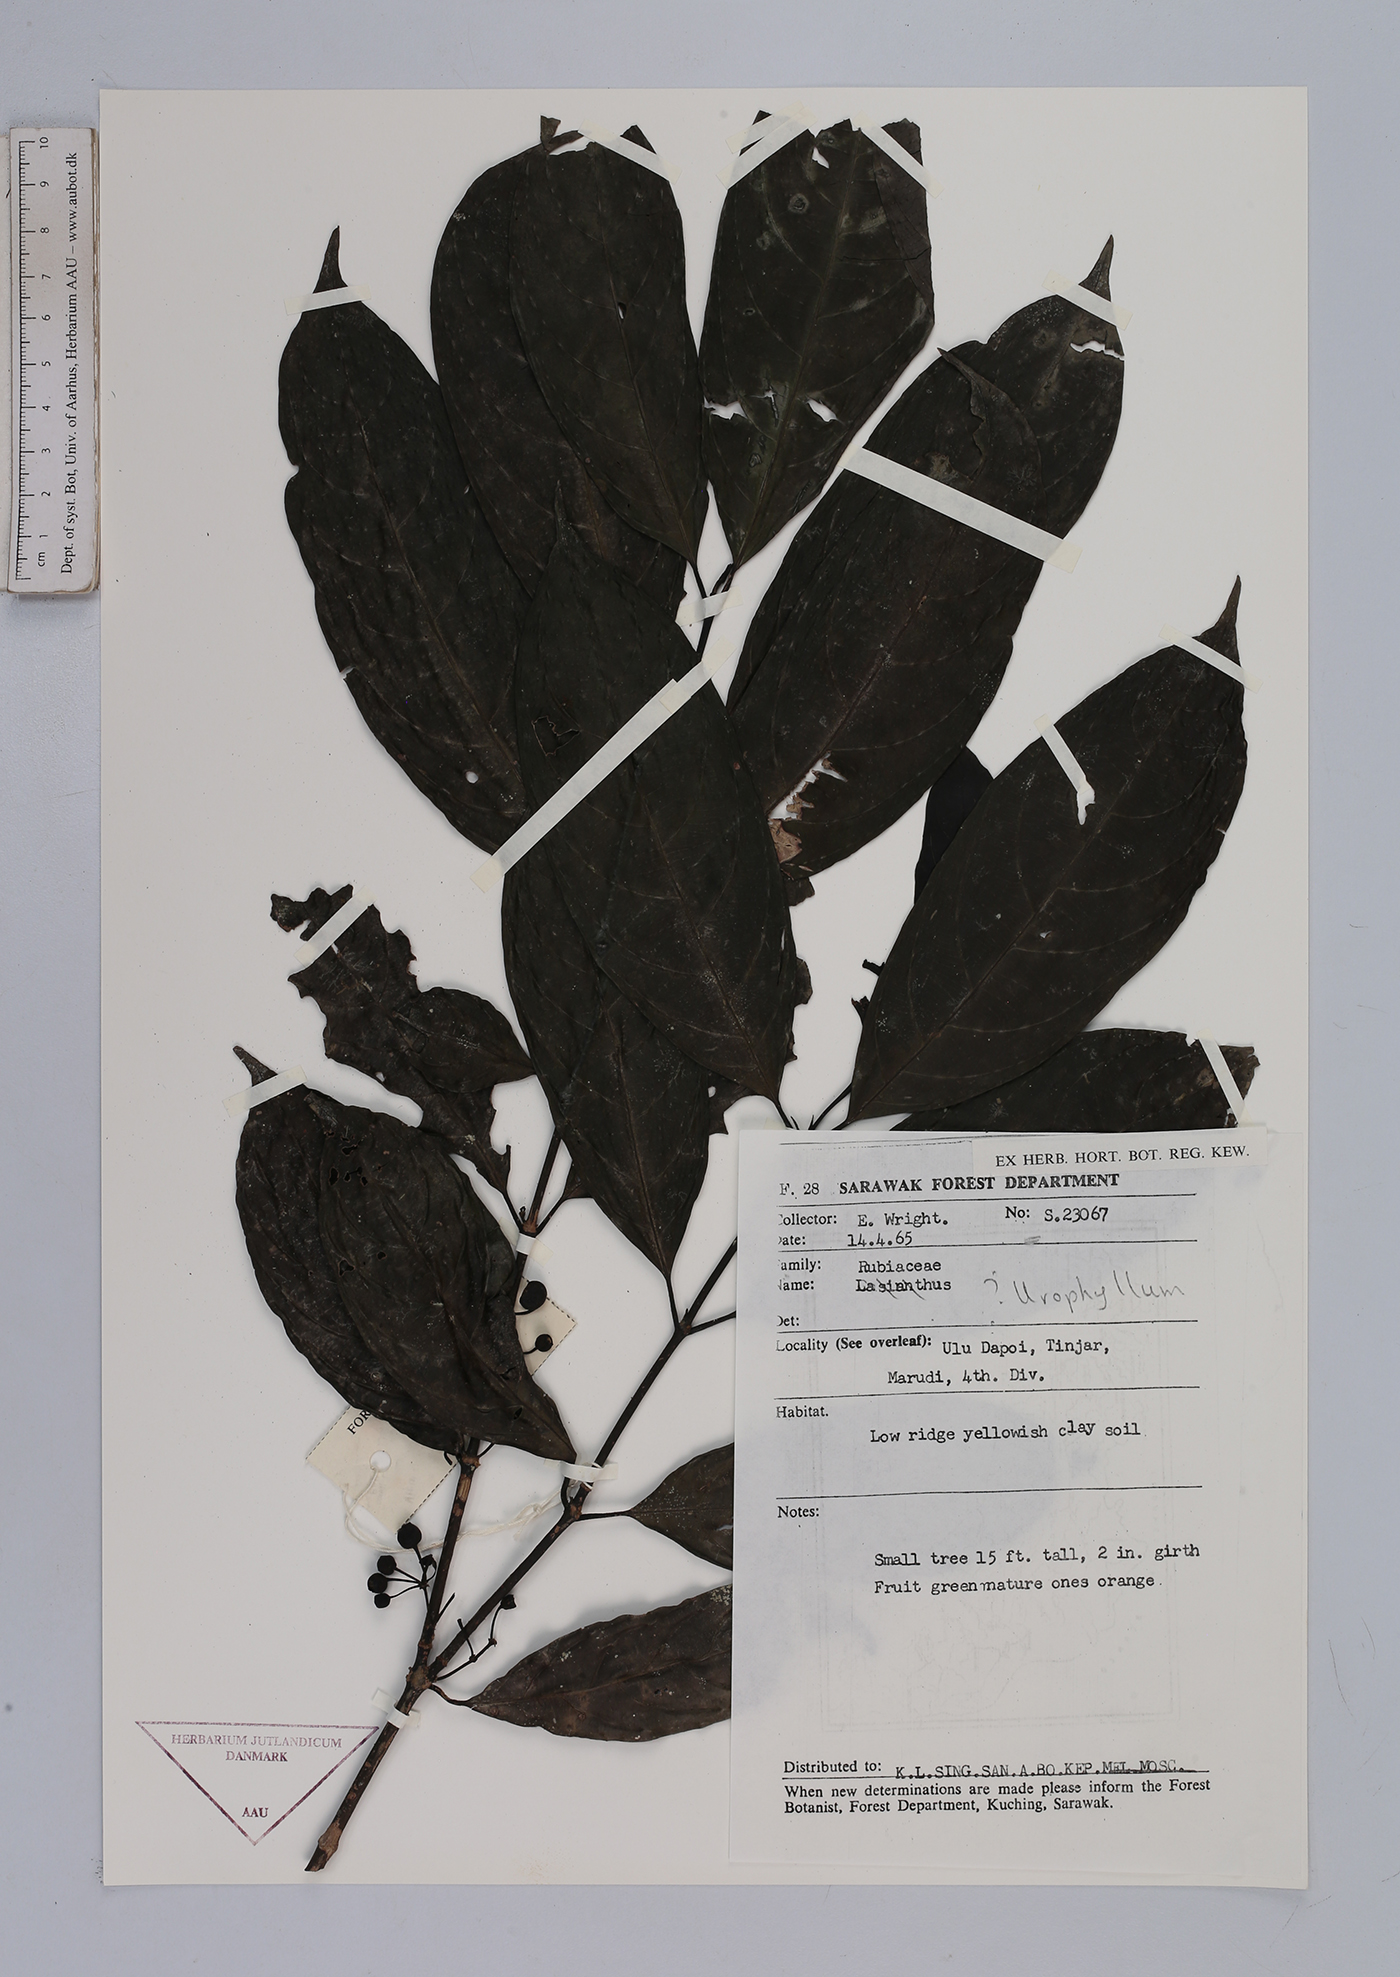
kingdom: Plantae
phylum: Tracheophyta
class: Magnoliopsida
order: Gentianales
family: Rubiaceae
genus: Urophyllum
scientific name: Urophyllum
